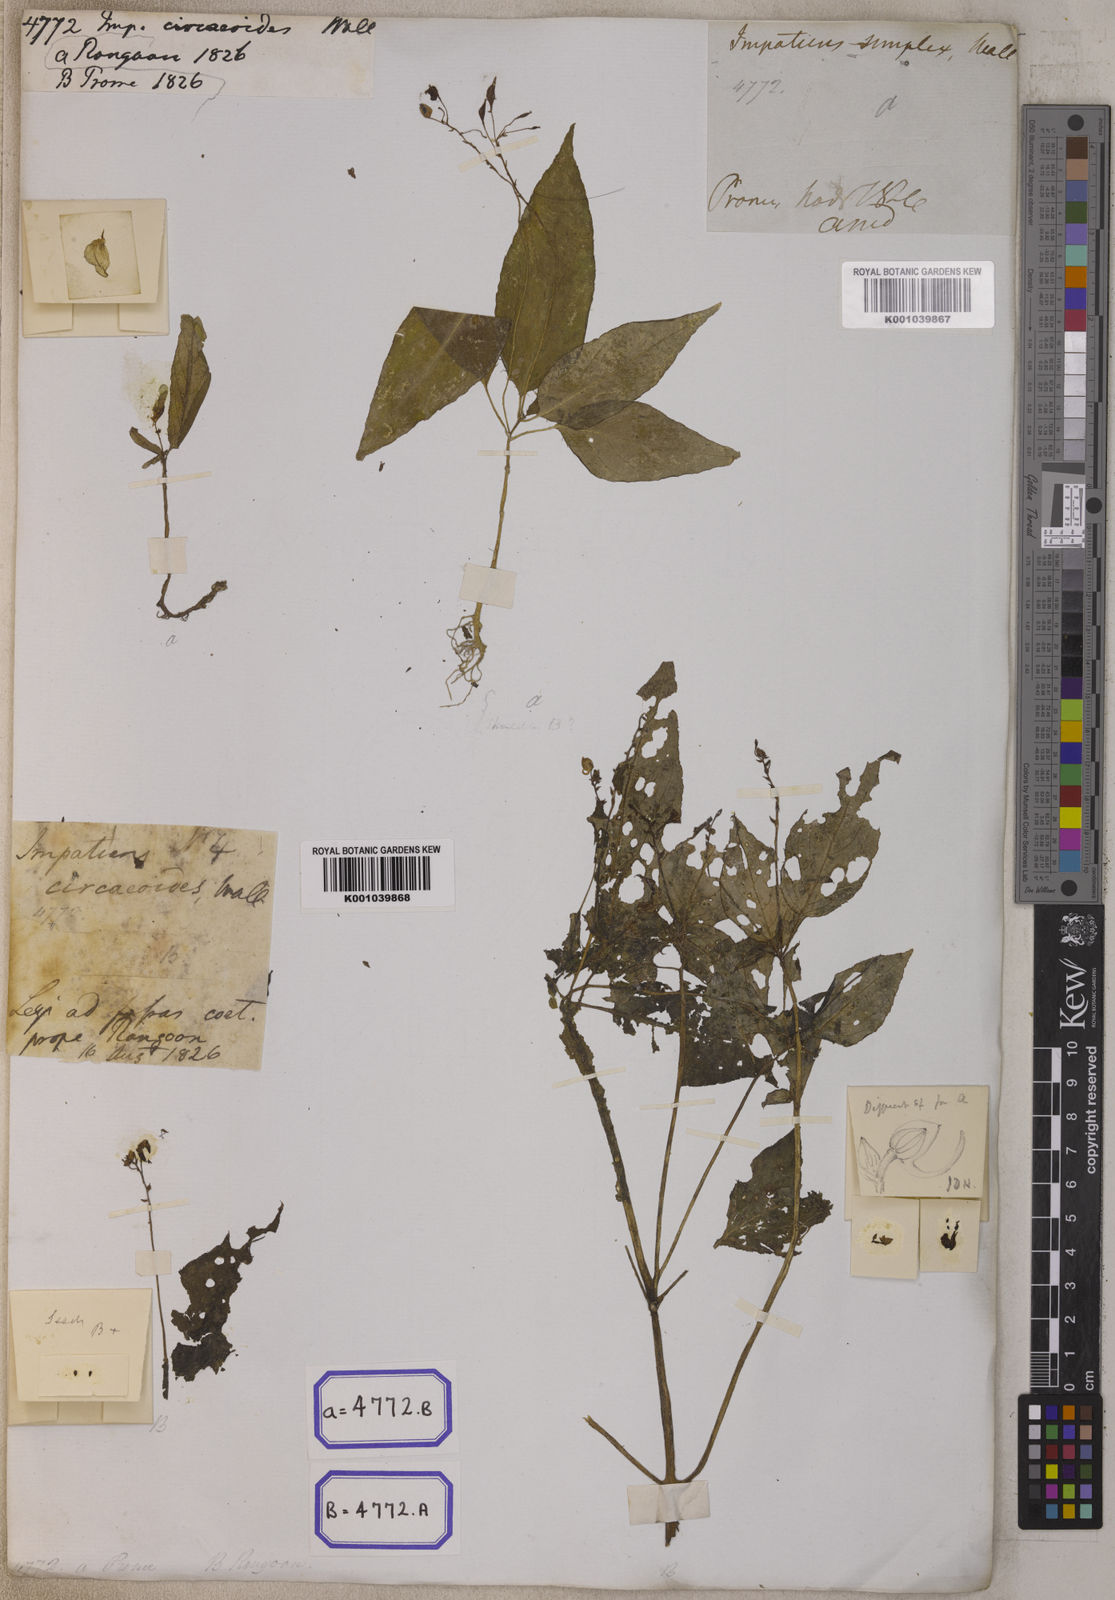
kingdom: Plantae
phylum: Tracheophyta
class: Magnoliopsida
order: Ericales
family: Balsaminaceae
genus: Impatiens
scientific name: Impatiens
